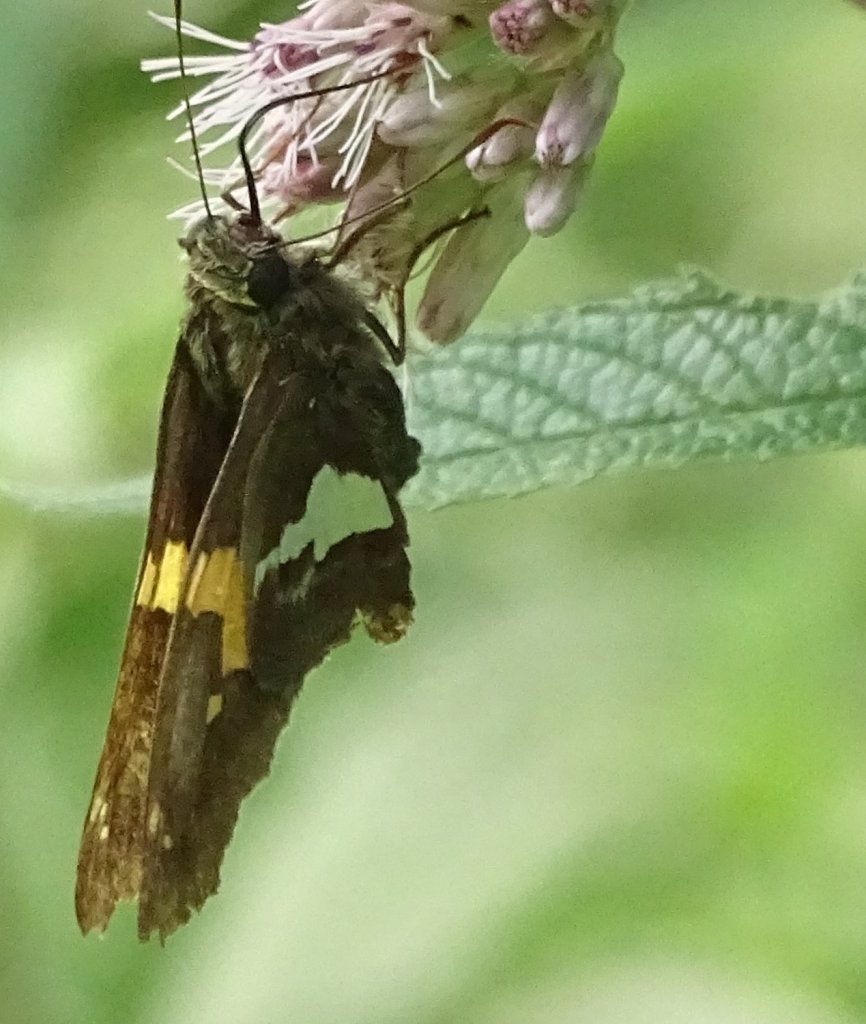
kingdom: Animalia
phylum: Arthropoda
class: Insecta
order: Lepidoptera
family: Hesperiidae
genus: Epargyreus
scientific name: Epargyreus clarus
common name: Silver-spotted Skipper
